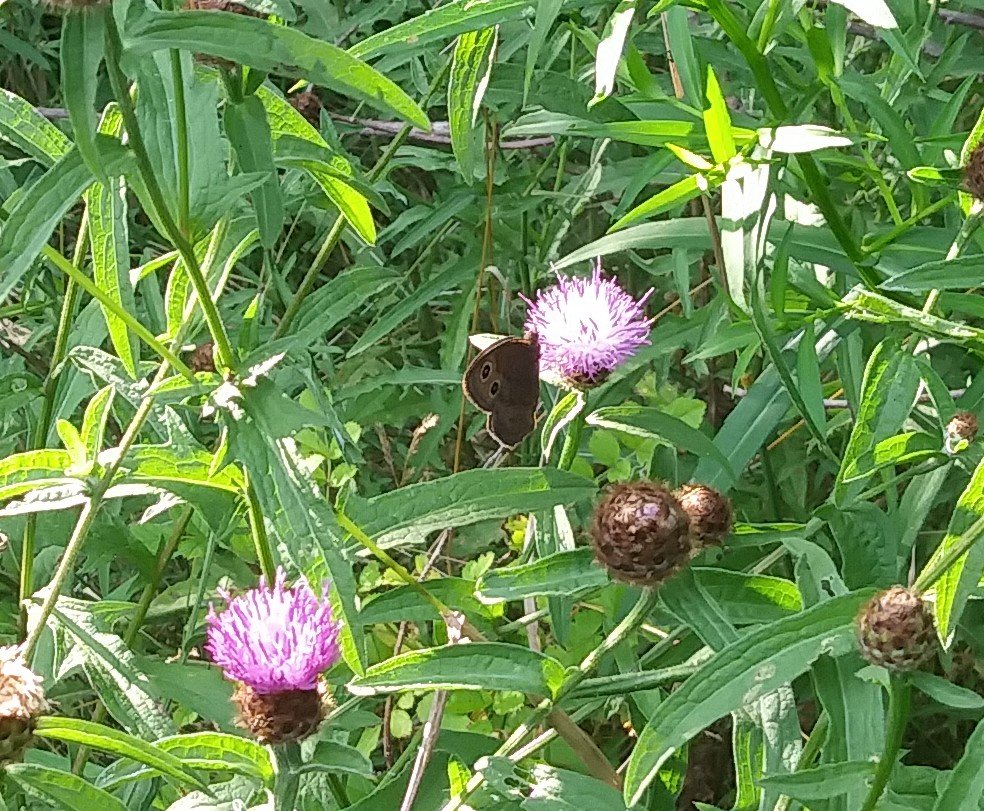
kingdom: Animalia
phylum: Arthropoda
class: Insecta
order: Lepidoptera
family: Nymphalidae
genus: Cercyonis
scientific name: Cercyonis pegala
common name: Common Wood-Nymph
